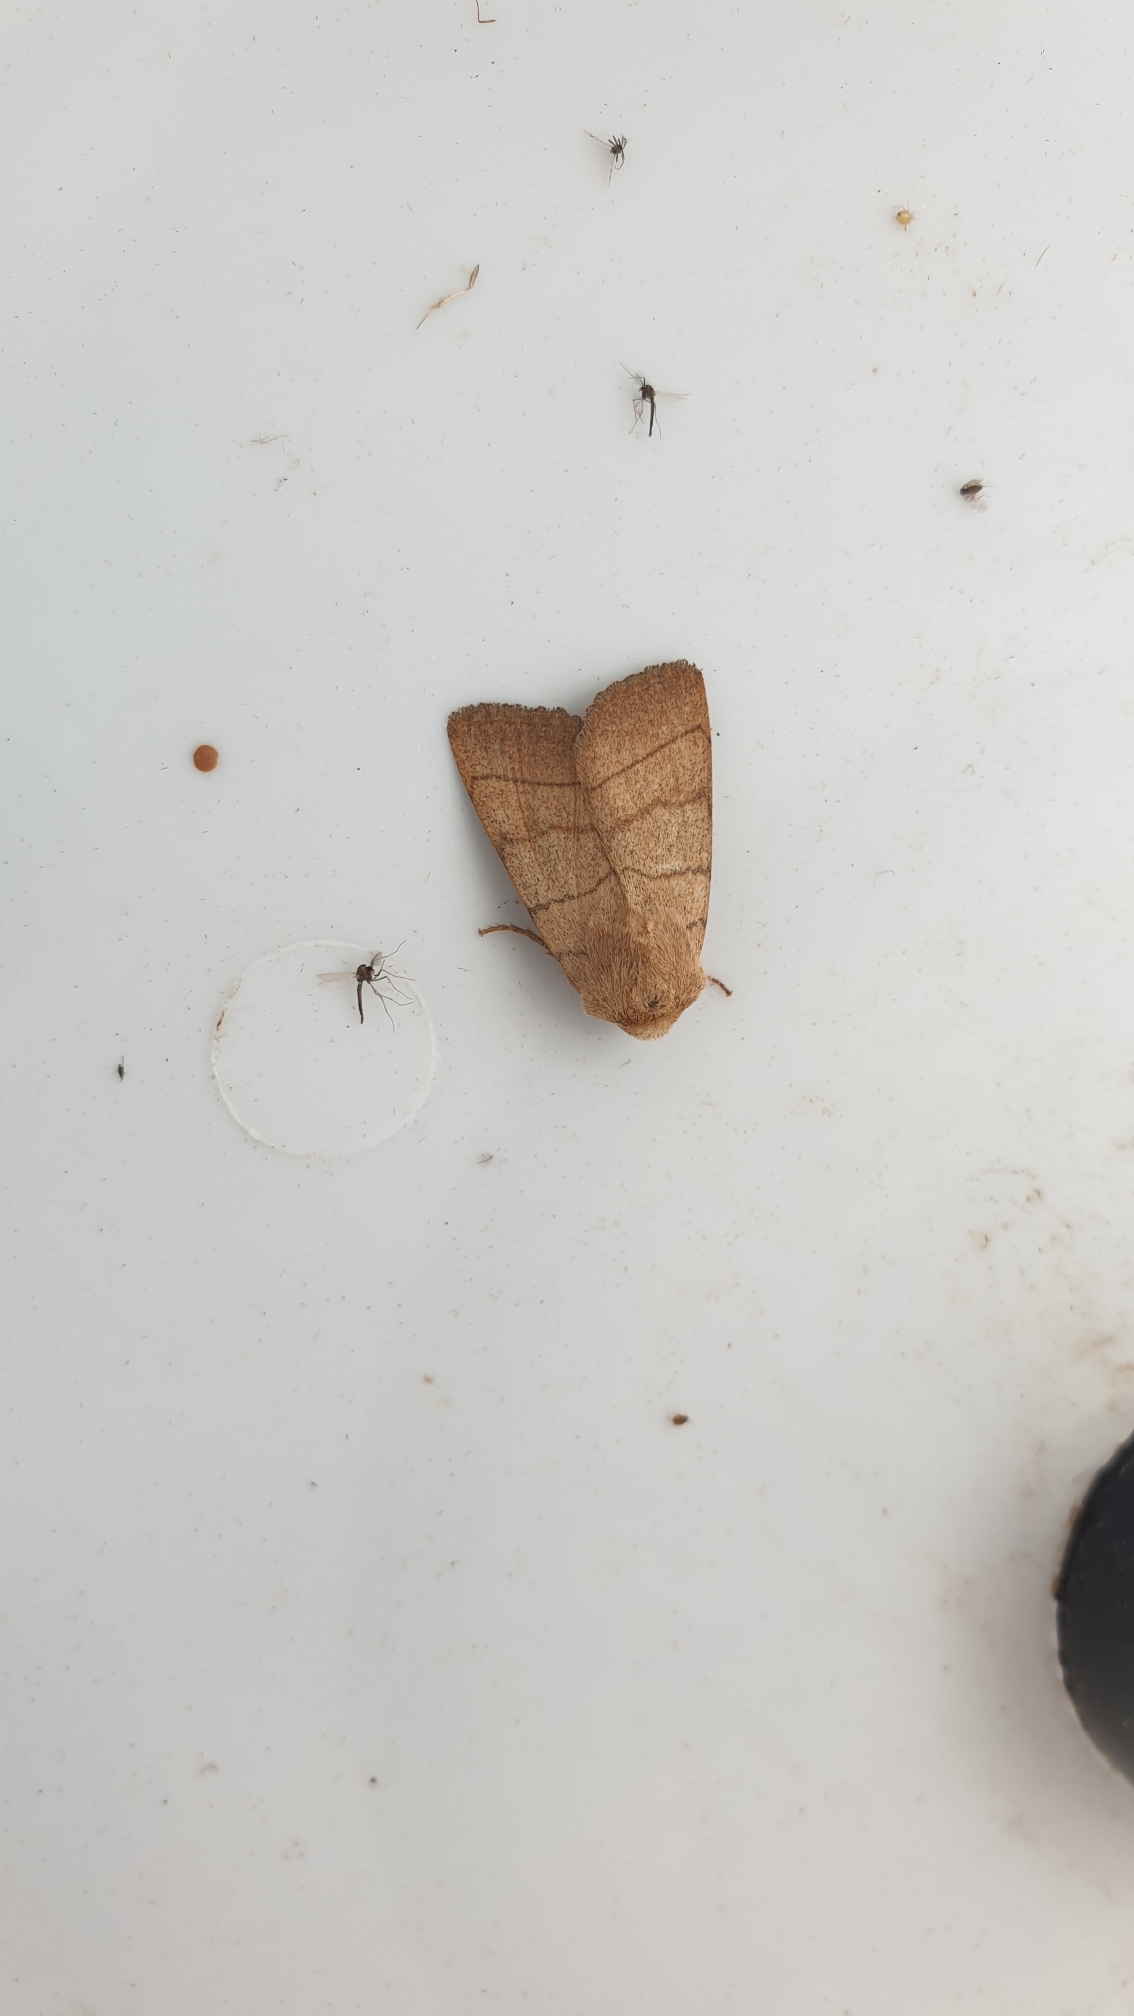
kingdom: Animalia
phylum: Arthropoda
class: Insecta
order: Lepidoptera
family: Noctuidae
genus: Charanyca
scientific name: Charanyca trigrammica
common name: Firestreget ugle
